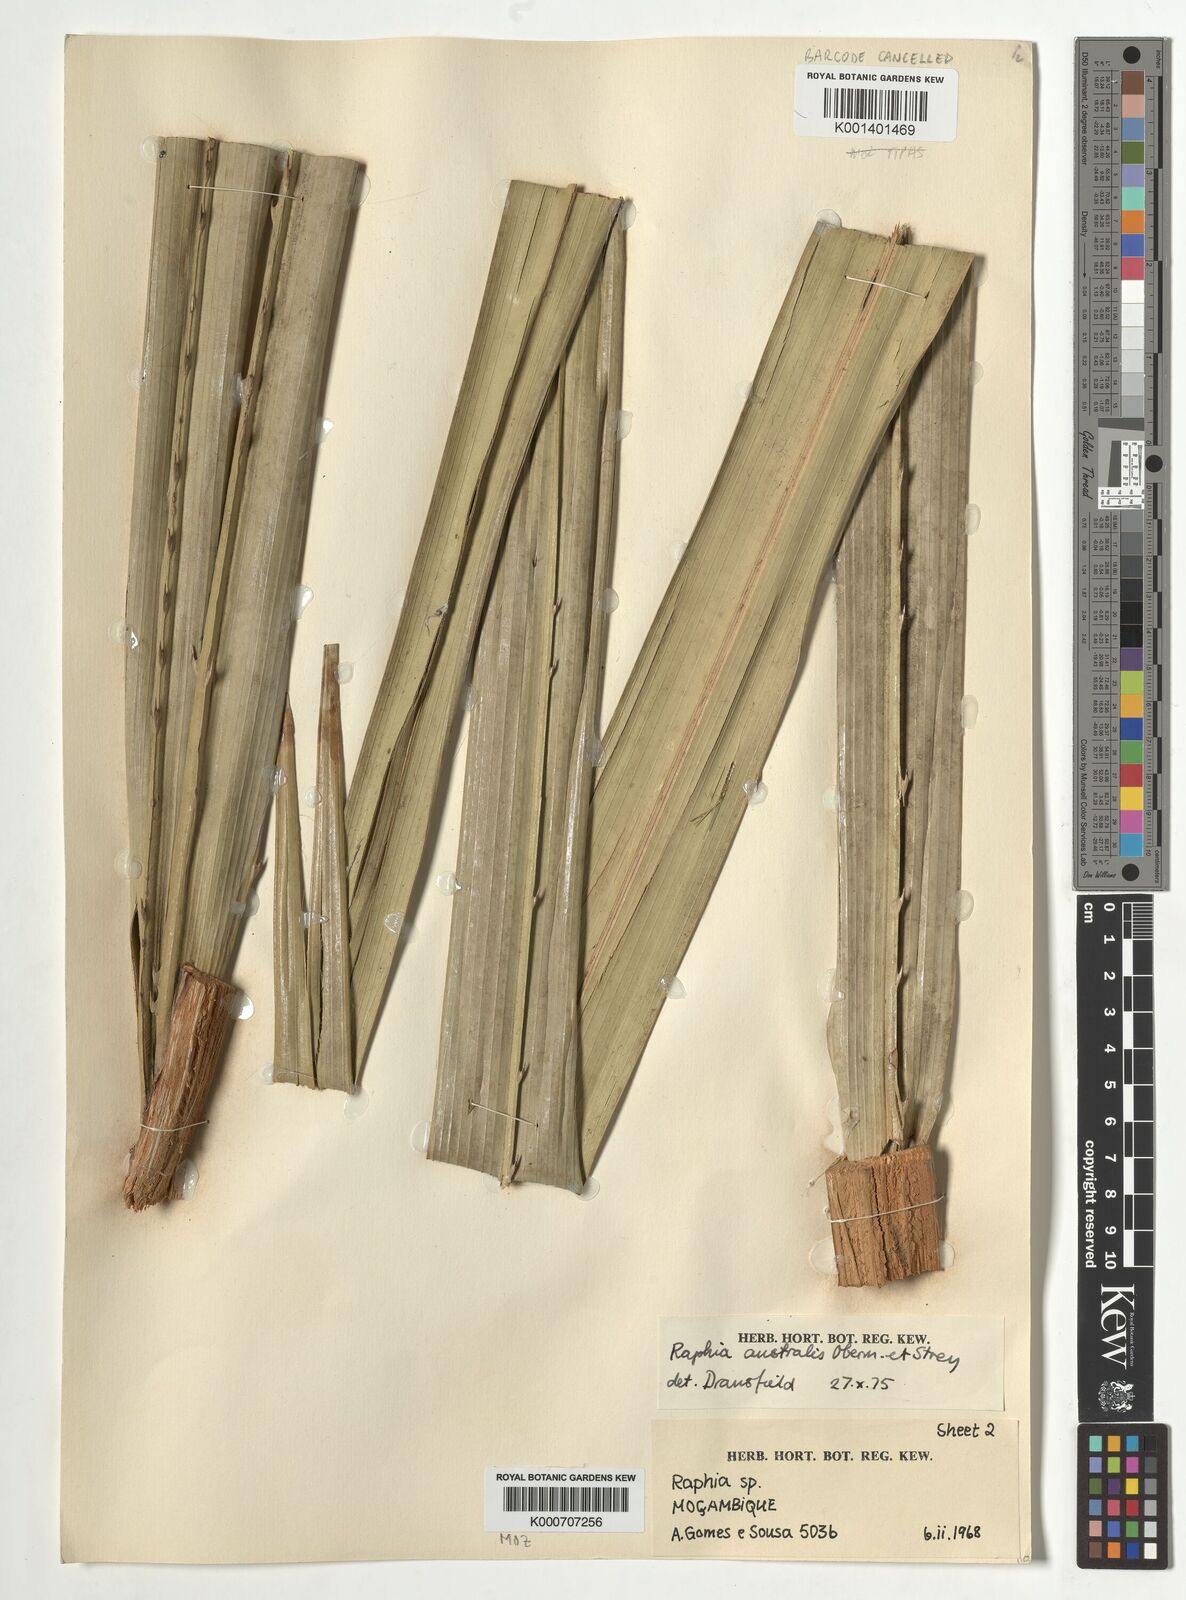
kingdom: Plantae
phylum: Tracheophyta
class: Liliopsida
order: Arecales
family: Arecaceae
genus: Raphia
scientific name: Raphia australis
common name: Giant palm
